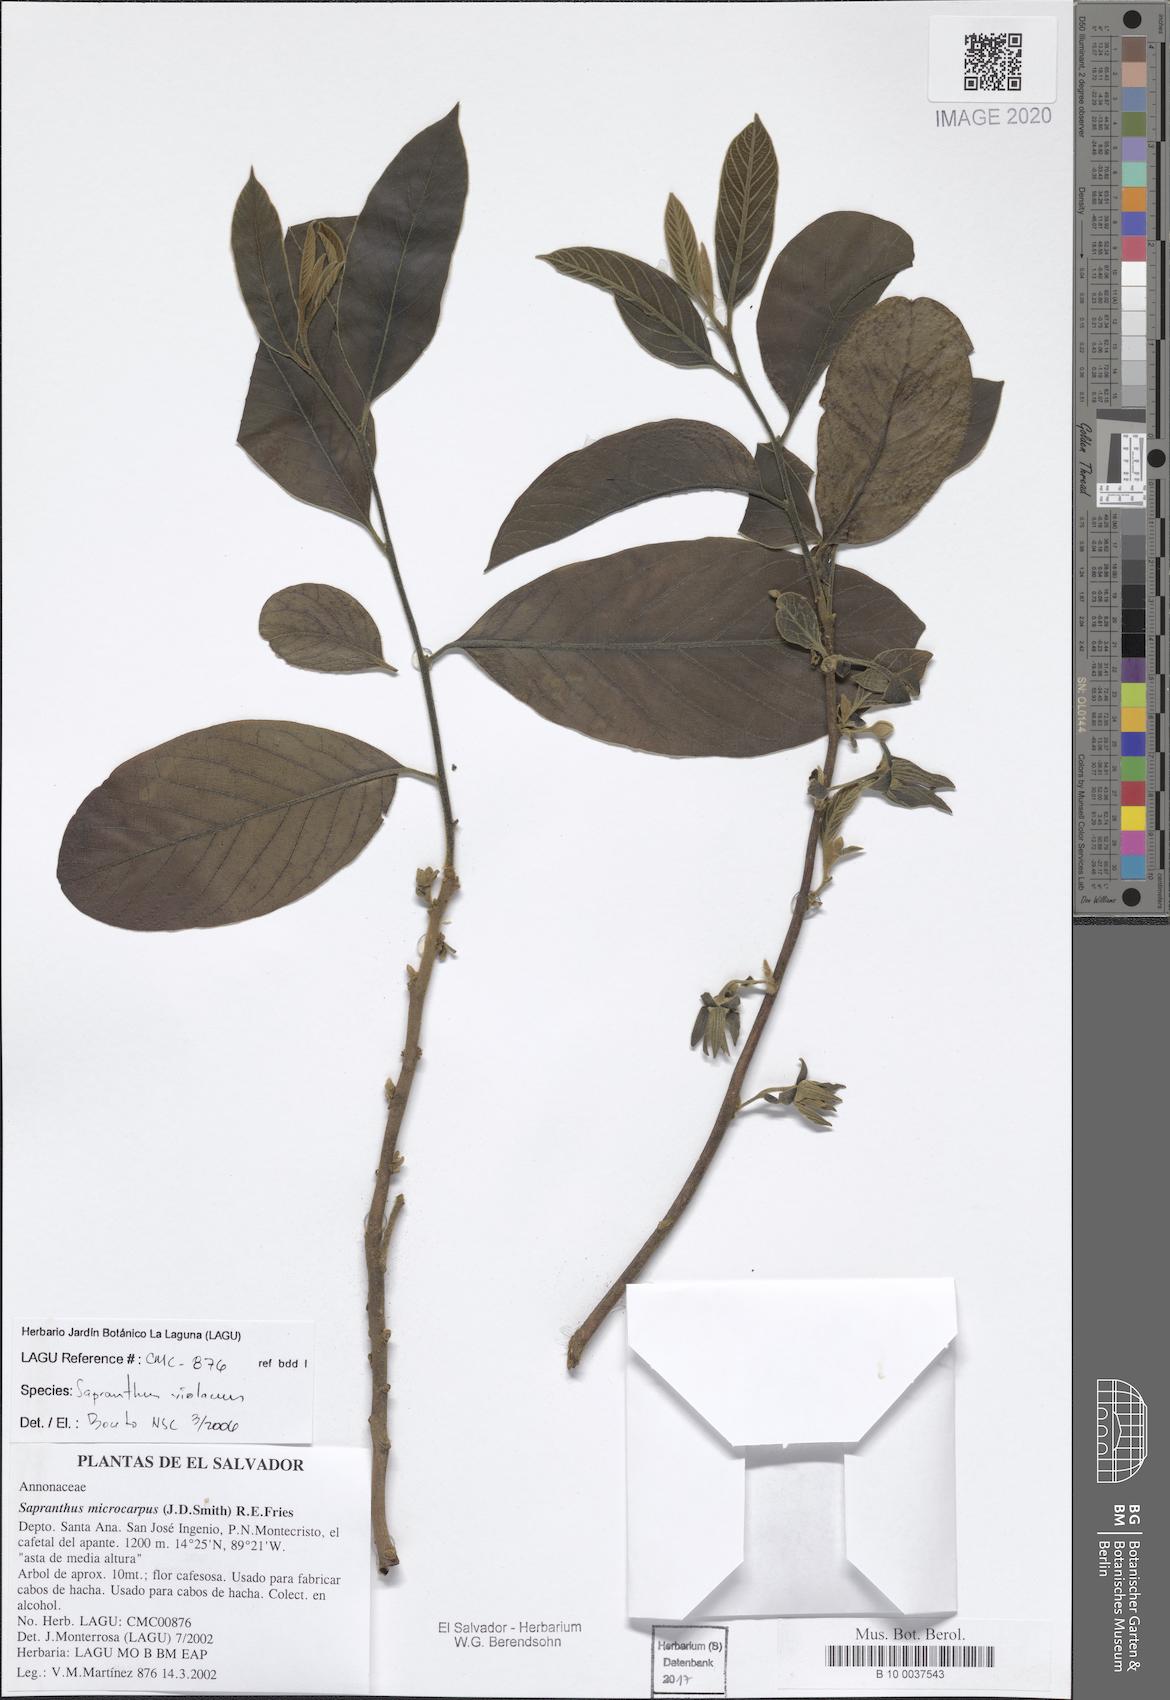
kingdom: Plantae
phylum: Tracheophyta
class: Magnoliopsida
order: Magnoliales
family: Annonaceae
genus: Sapranthus
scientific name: Sapranthus violaceus
